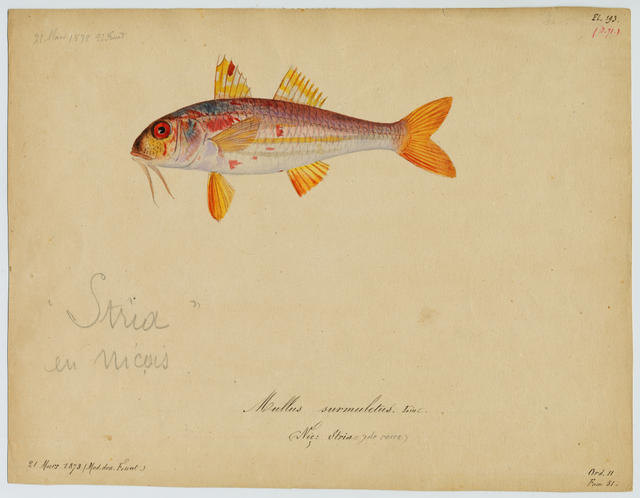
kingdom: Animalia
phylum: Chordata
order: Perciformes
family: Mullidae
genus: Mullus
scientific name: Mullus surmuletus
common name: Red mullet
